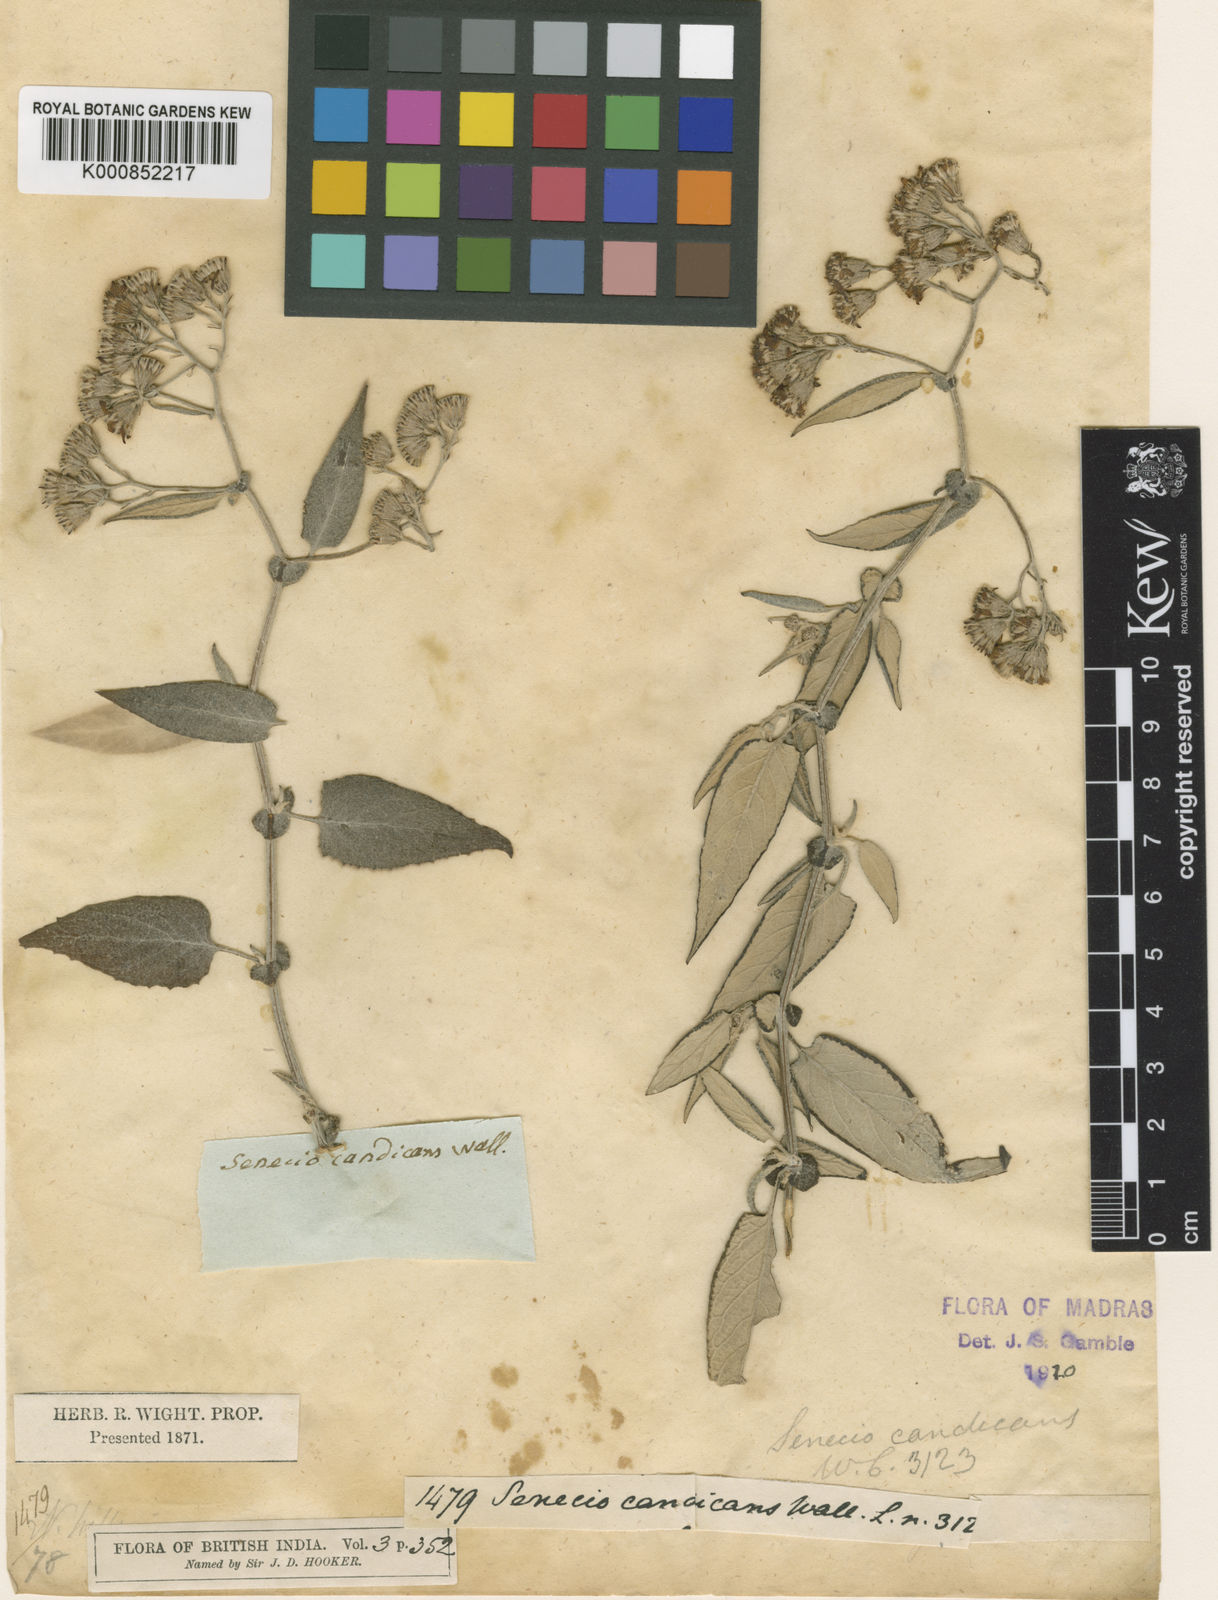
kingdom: Plantae
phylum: Tracheophyta
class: Magnoliopsida
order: Asterales
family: Asteraceae
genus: Senecio
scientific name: Senecio candicans
